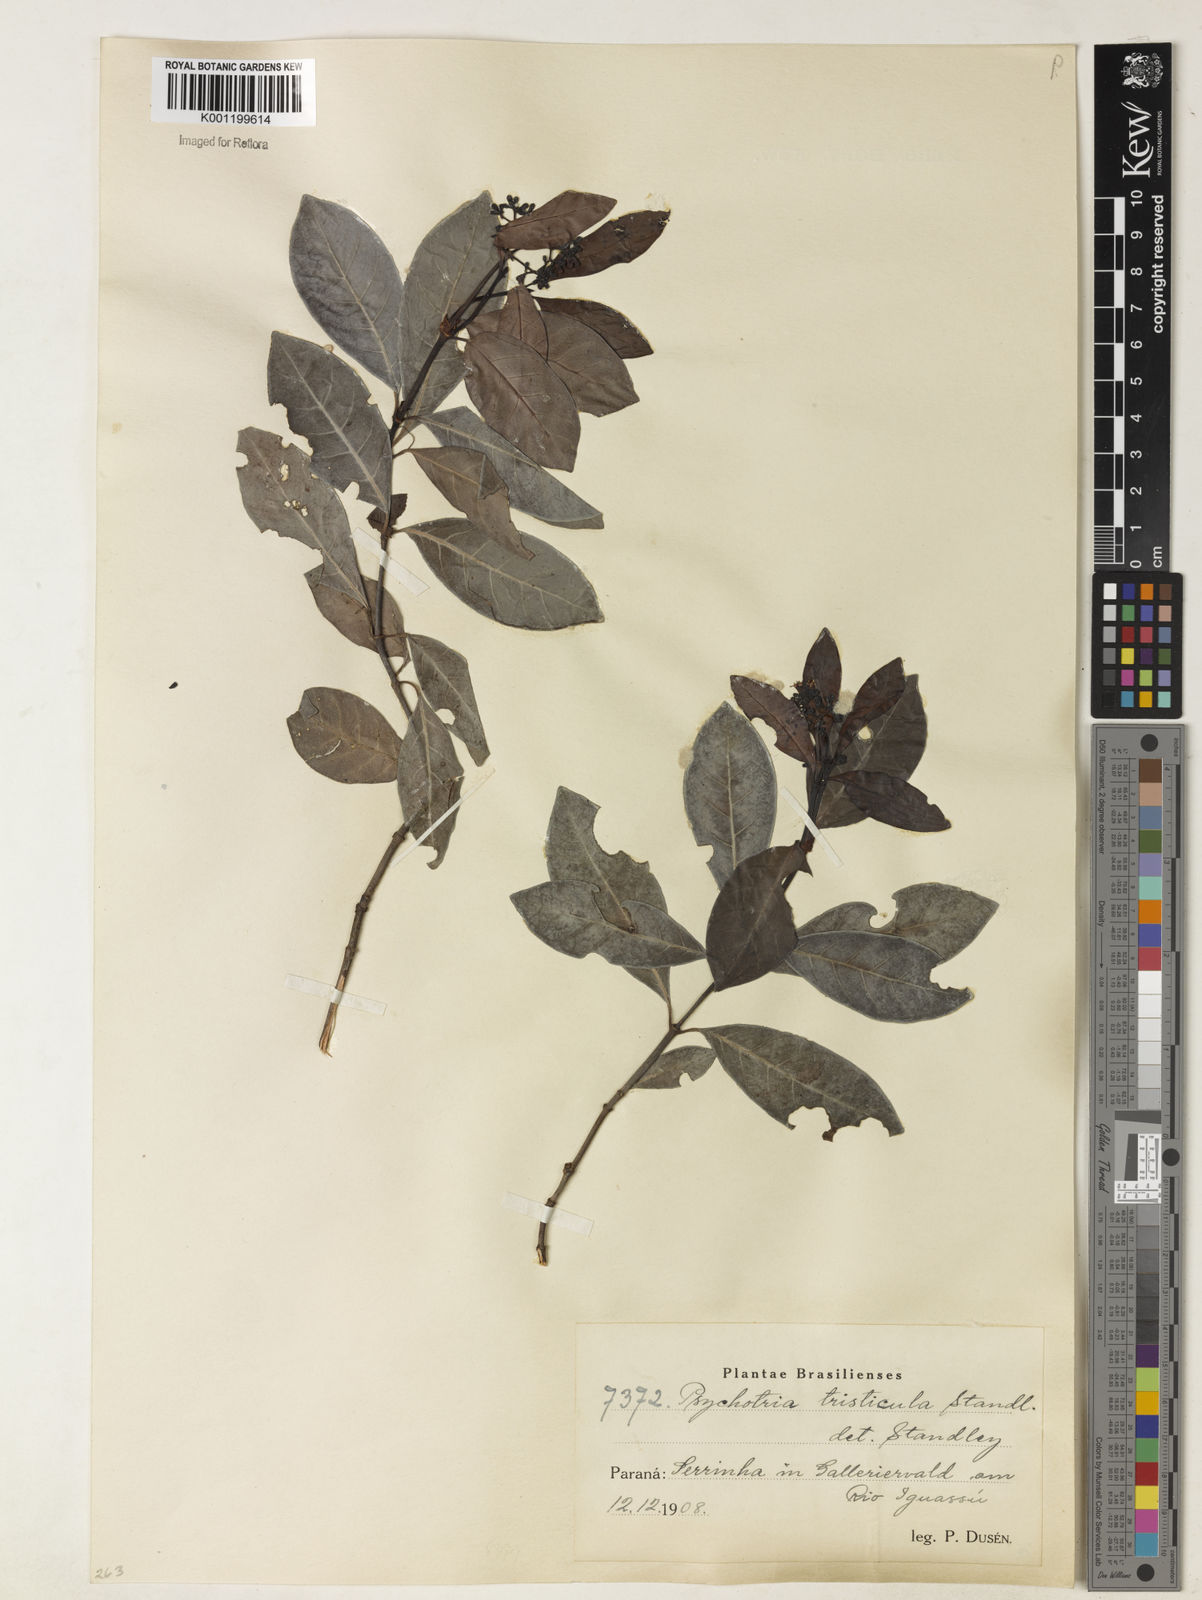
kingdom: Plantae
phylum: Tracheophyta
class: Magnoliopsida
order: Gentianales
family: Rubiaceae
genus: Psychotria
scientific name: Psychotria carthagenensis
